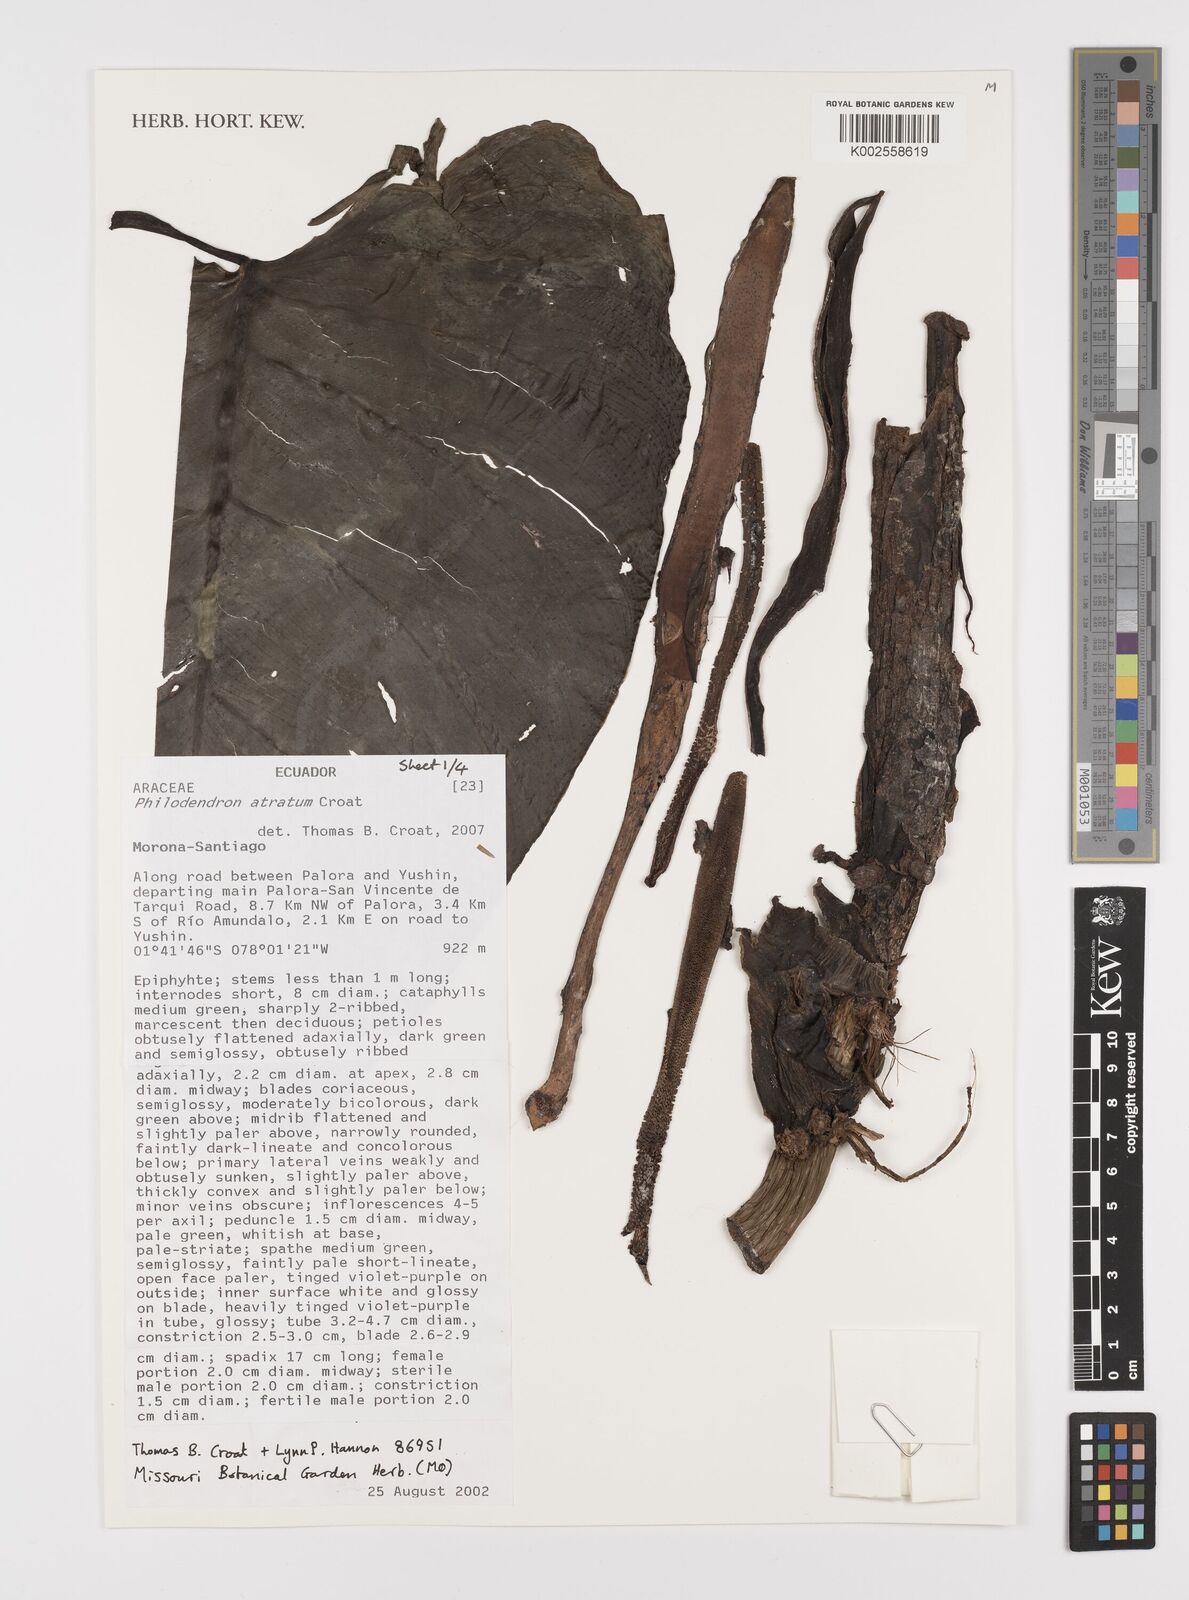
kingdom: Plantae
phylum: Tracheophyta
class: Liliopsida
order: Alismatales
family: Araceae
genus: Philodendron
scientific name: Philodendron atratum
